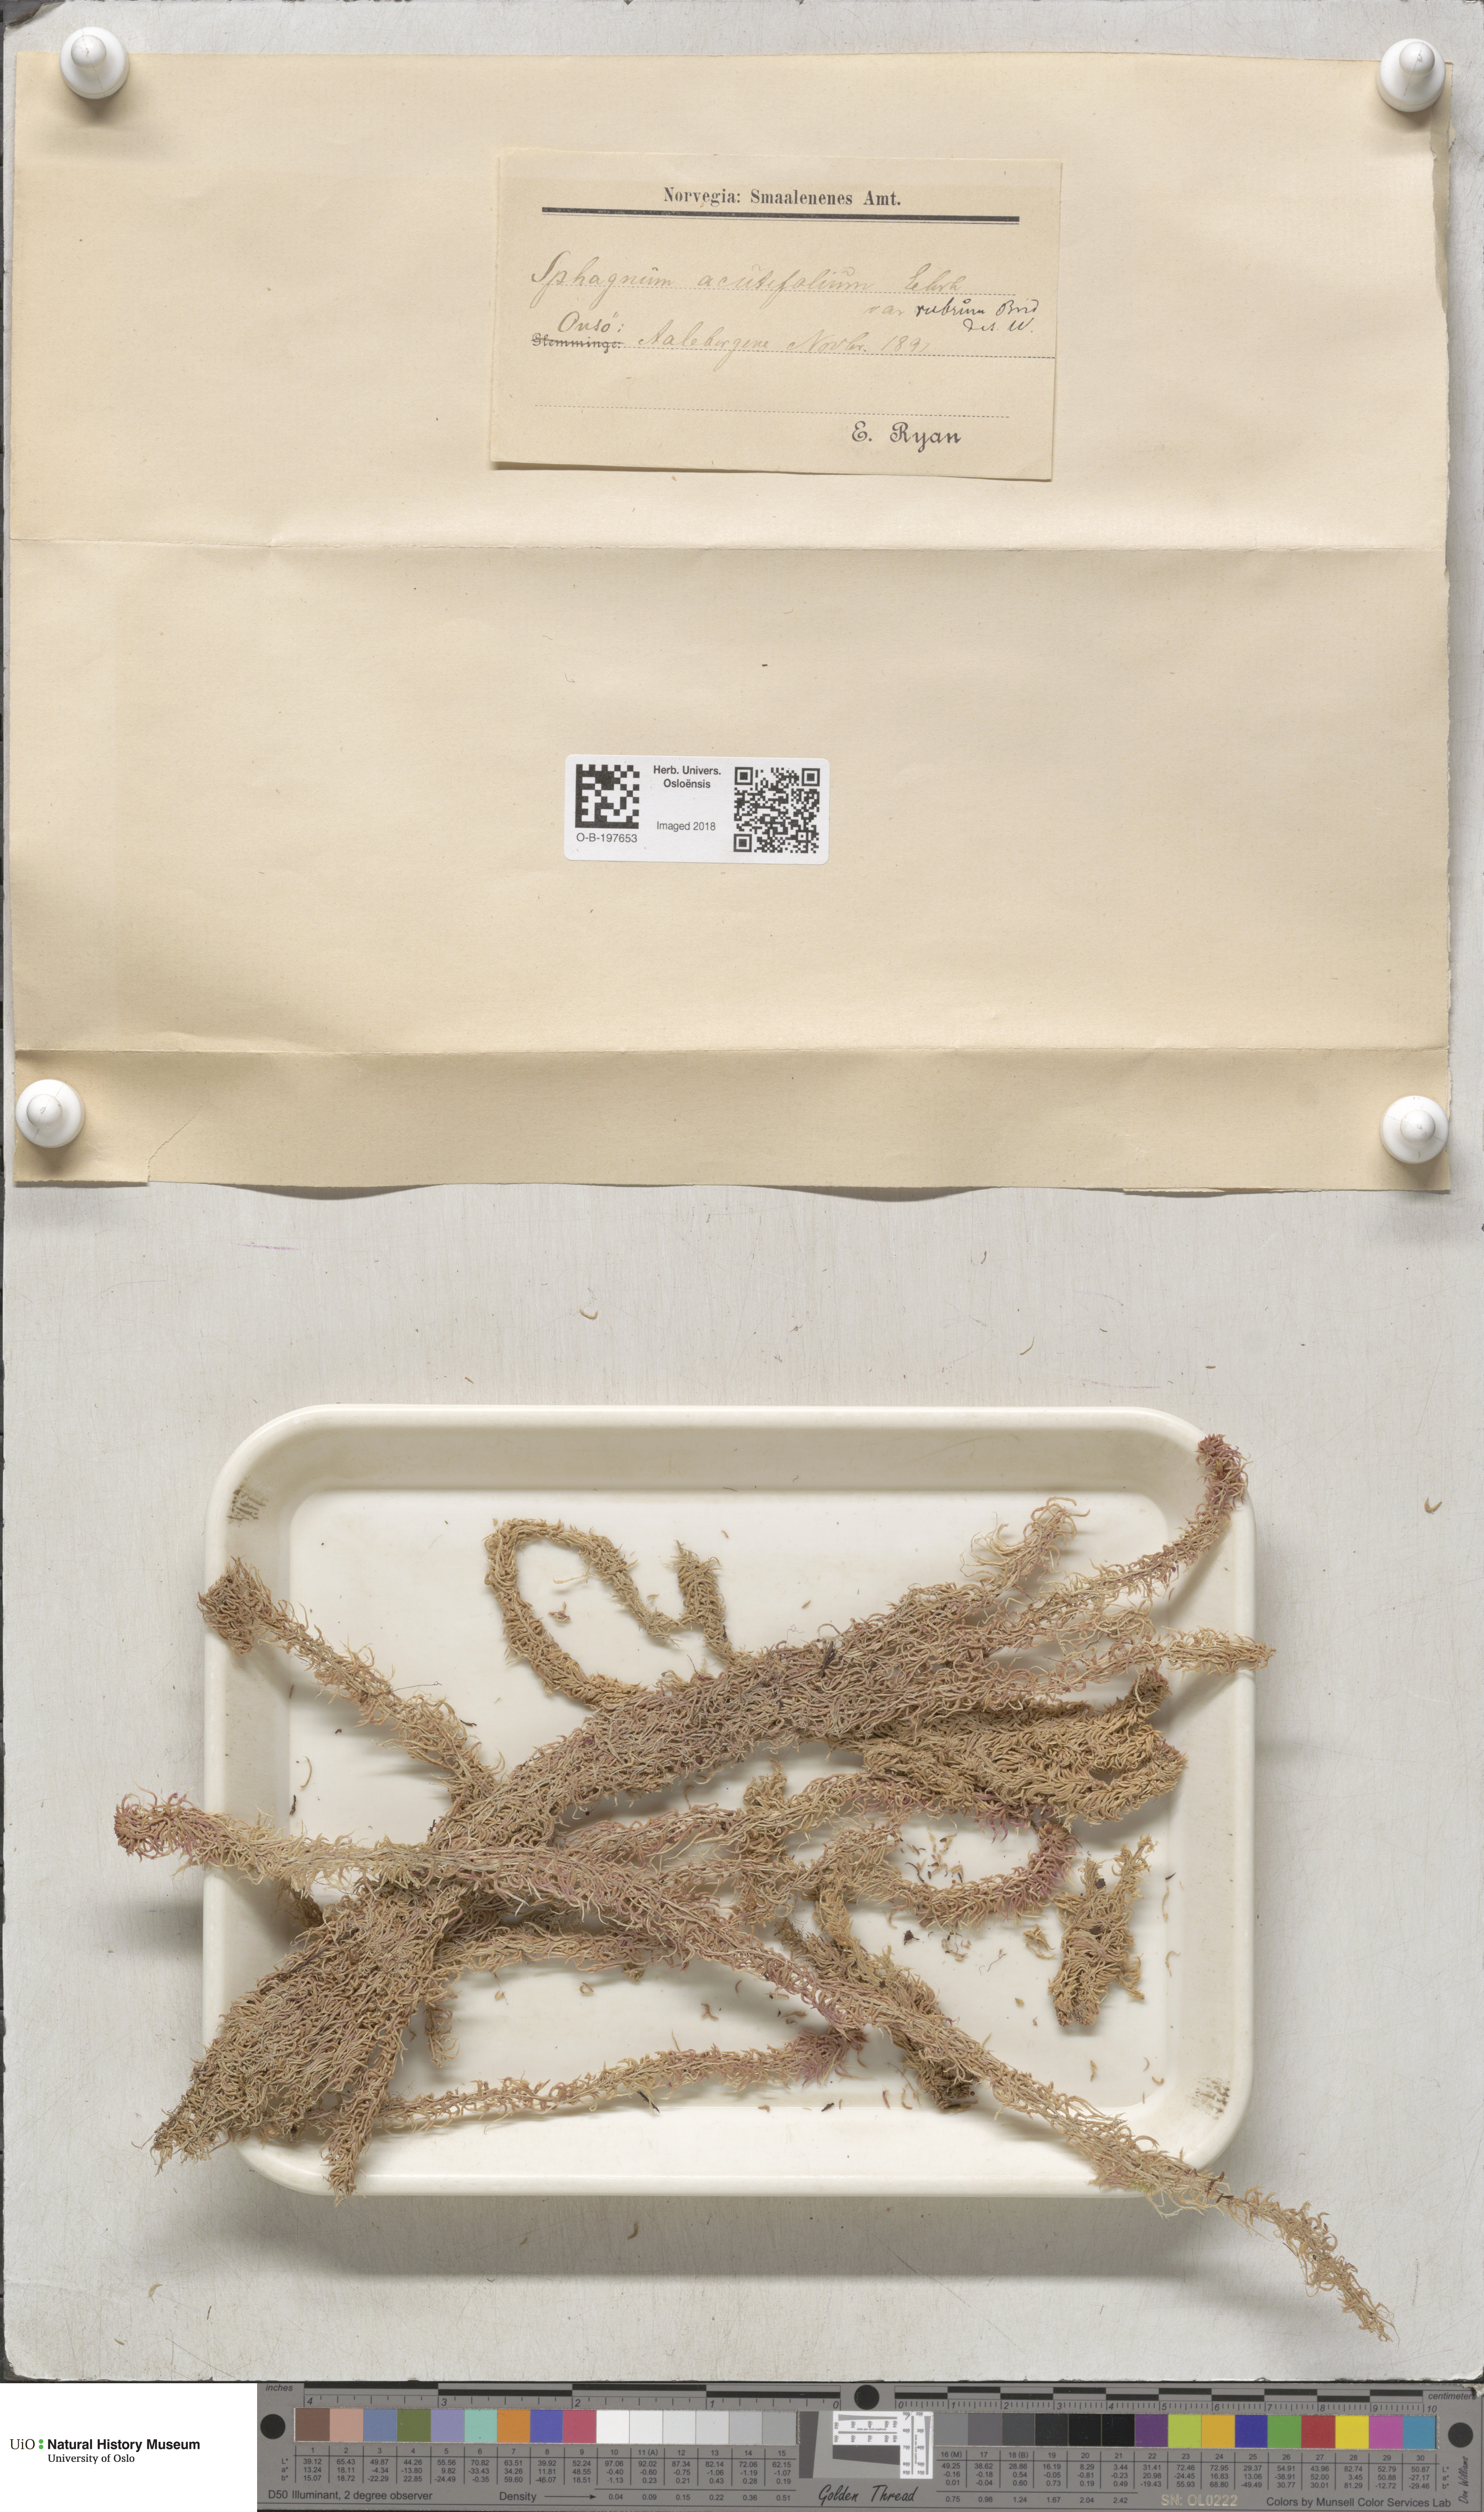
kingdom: Plantae
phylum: Bryophyta
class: Sphagnopsida
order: Sphagnales
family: Sphagnaceae
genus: Sphagnum
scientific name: Sphagnum capillifolium
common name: Small red peat moss
